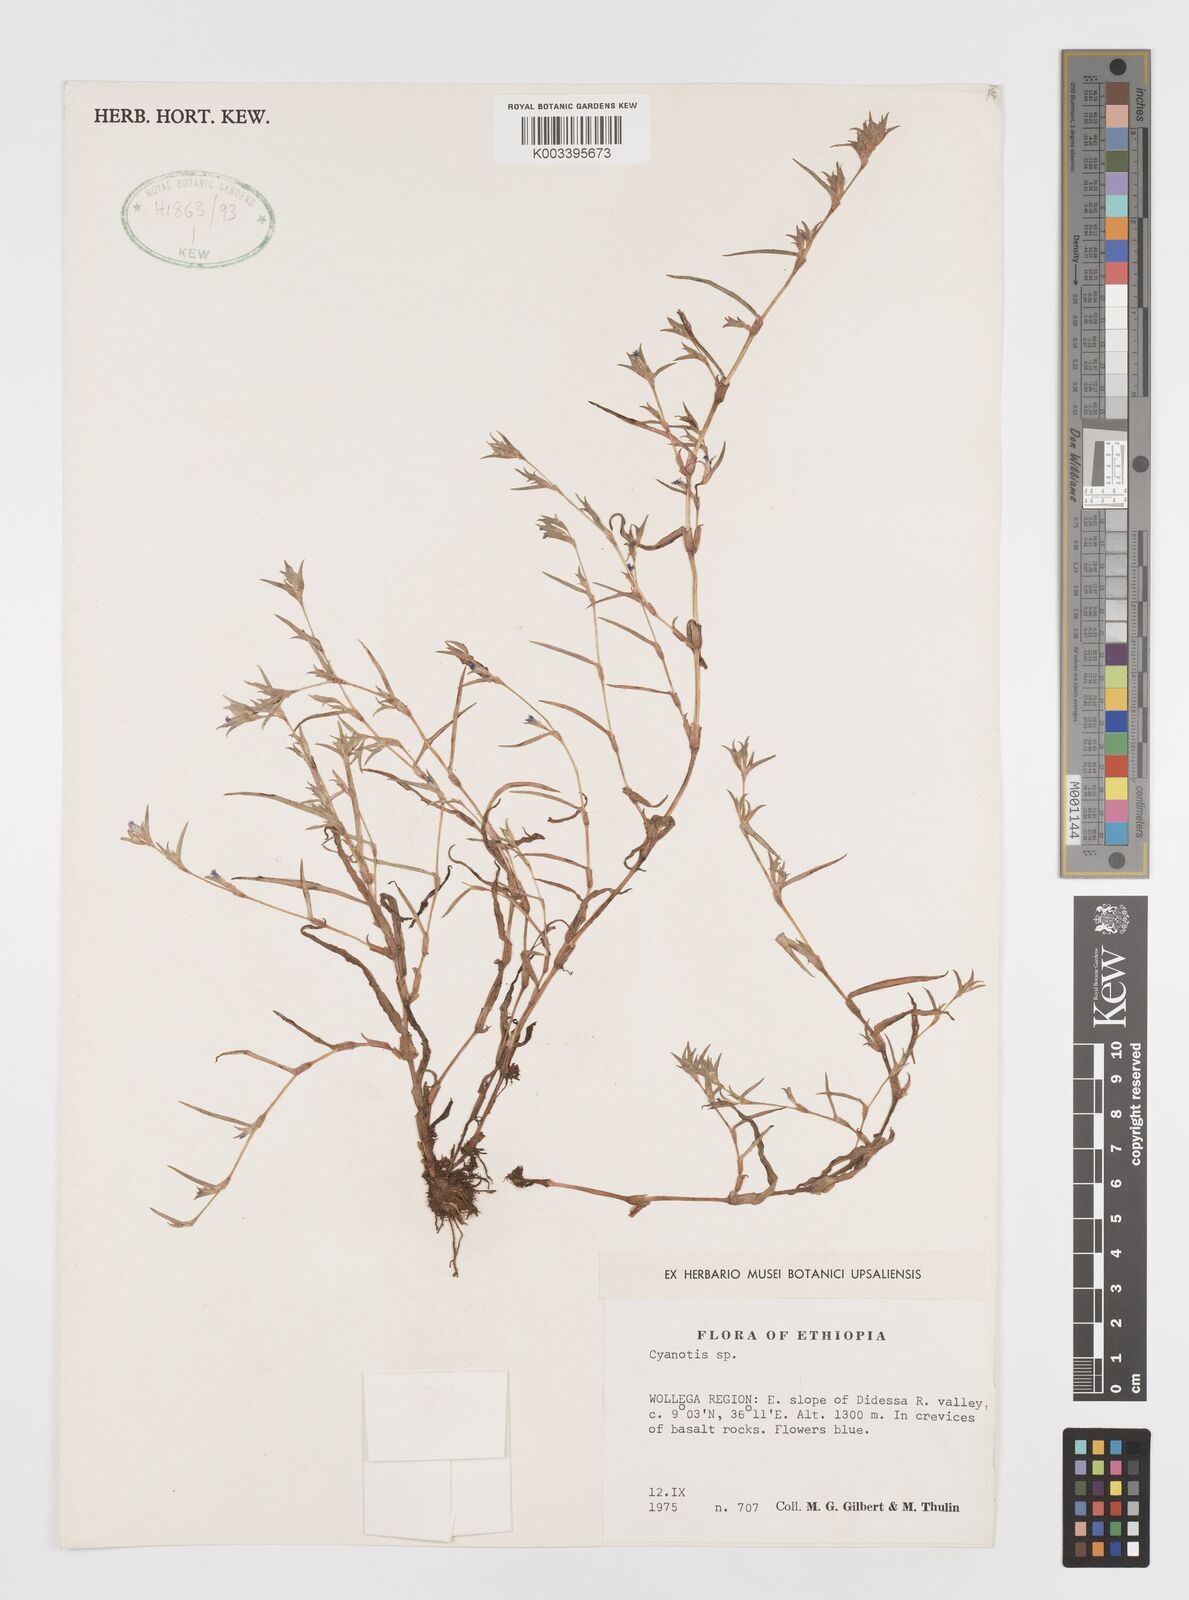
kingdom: Plantae
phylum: Tracheophyta
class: Liliopsida
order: Commelinales
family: Commelinaceae
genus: Cyanotis
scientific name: Cyanotis
